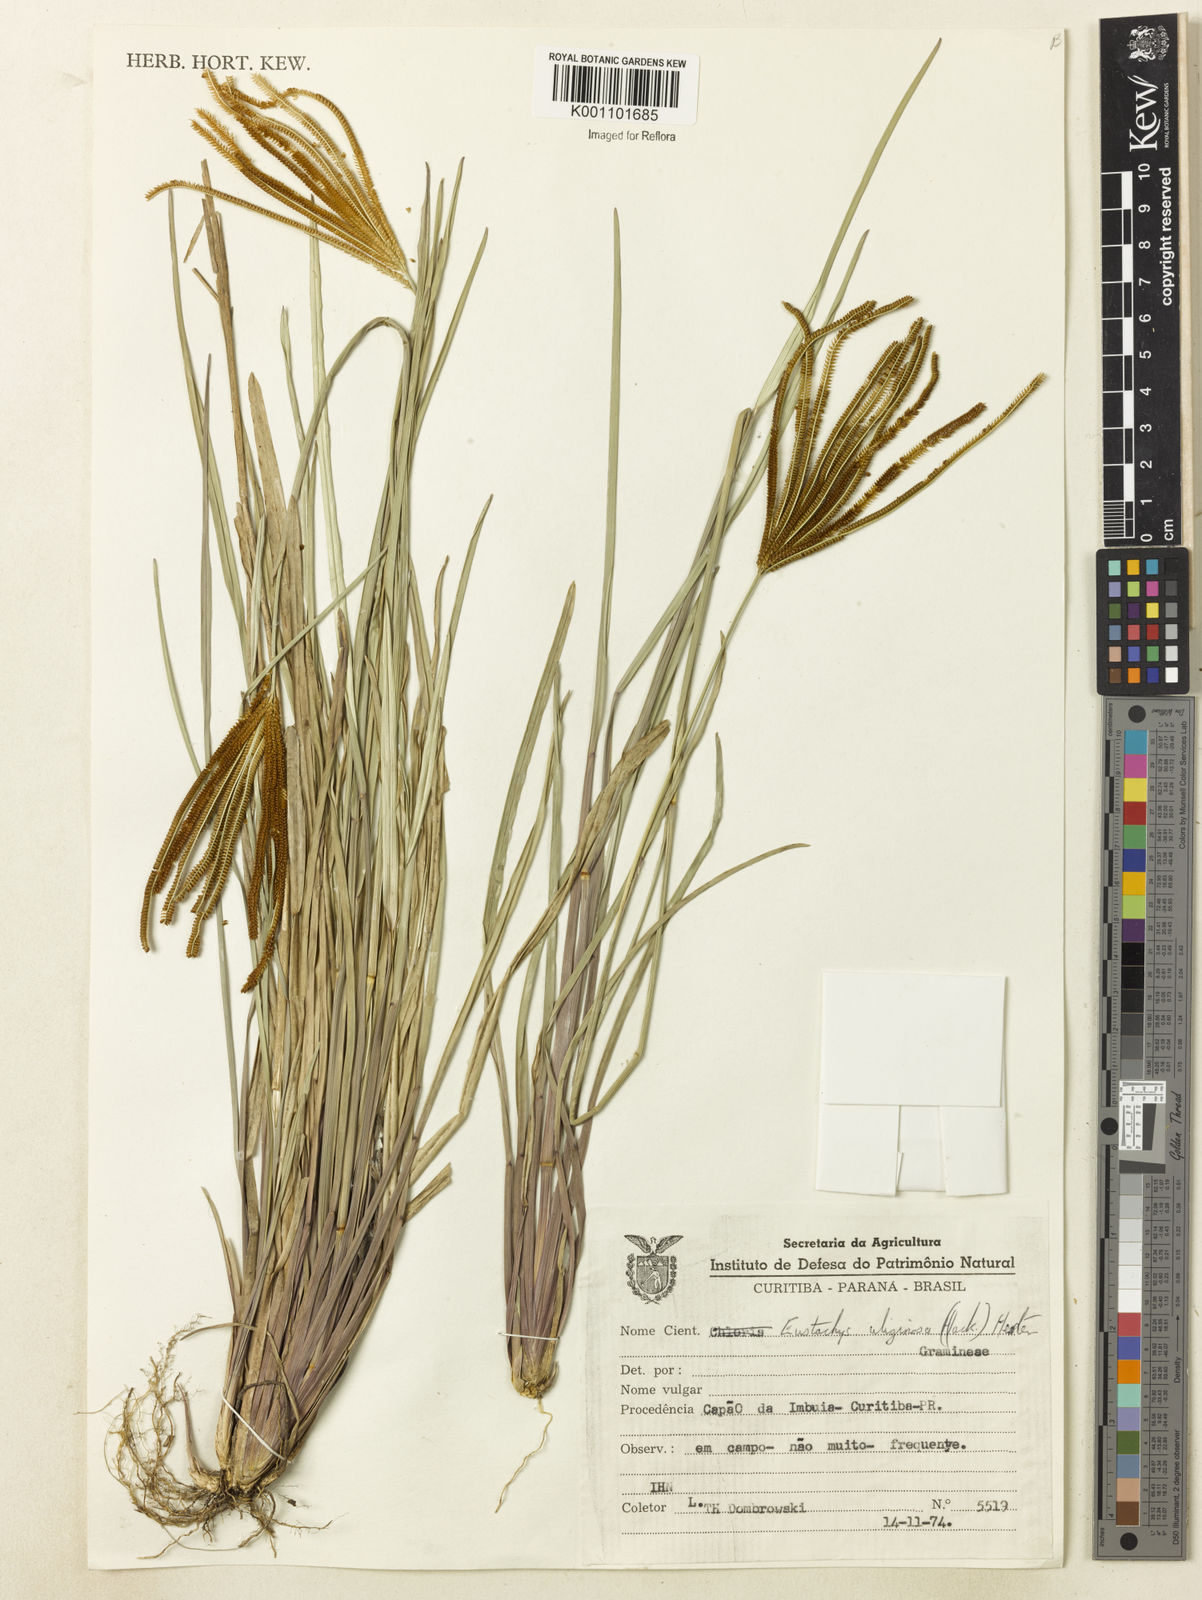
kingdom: Plantae
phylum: Tracheophyta
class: Liliopsida
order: Poales
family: Poaceae
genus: Eustachys
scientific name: Eustachys uliginosa
